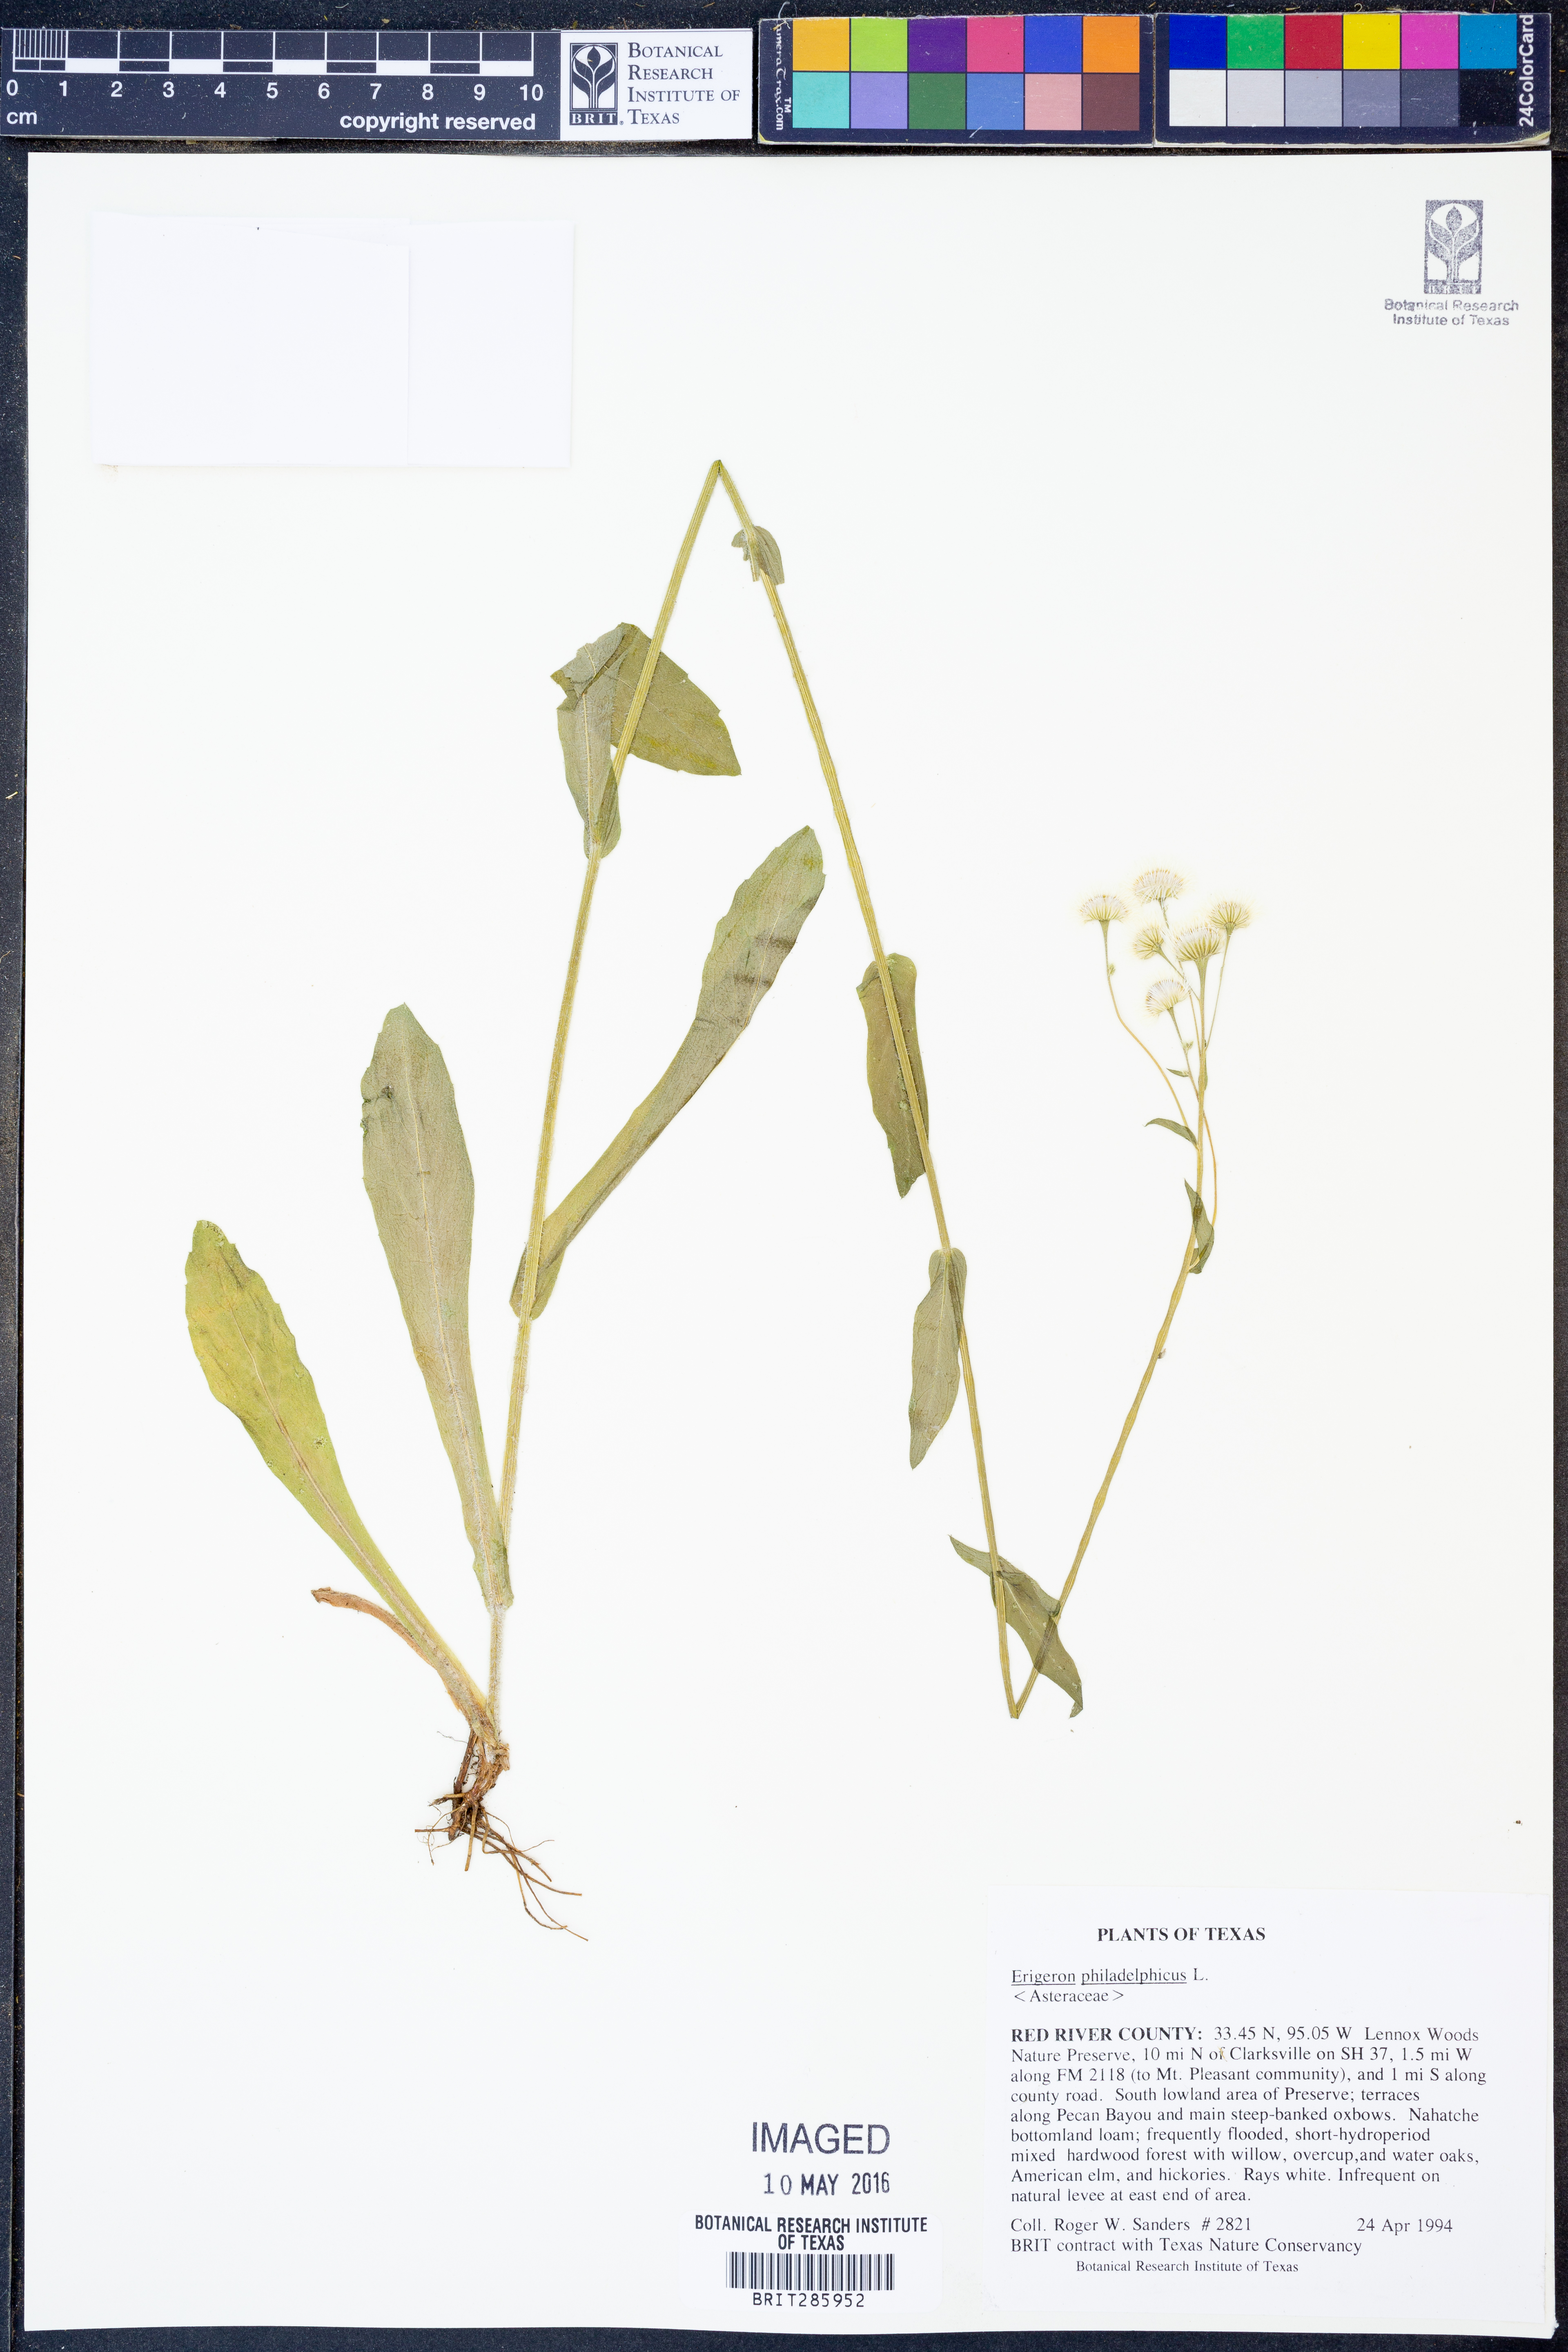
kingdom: Plantae
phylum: Tracheophyta
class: Magnoliopsida
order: Asterales
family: Asteraceae
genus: Erigeron
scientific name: Erigeron philadelphicus
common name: Robin's-plantain
